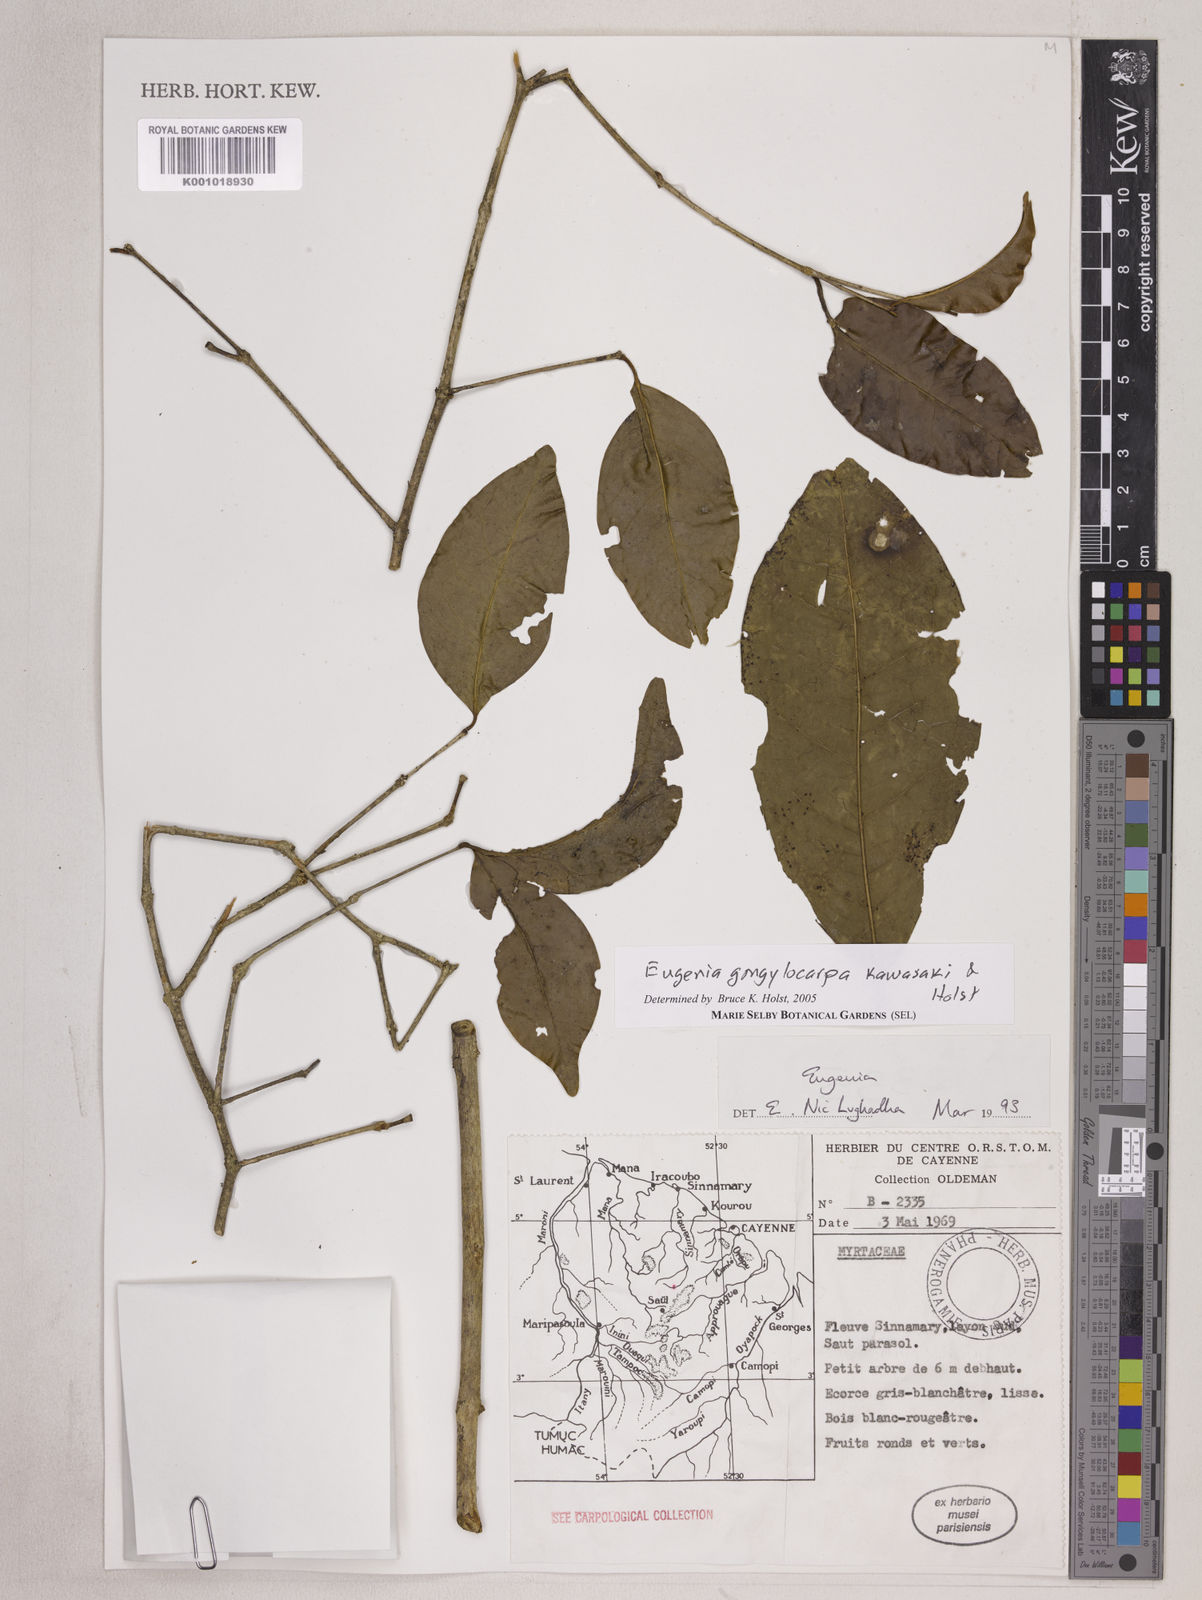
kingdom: Plantae
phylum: Tracheophyta
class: Magnoliopsida
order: Myrtales
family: Myrtaceae
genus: Eugenia
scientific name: Eugenia gongylocarpa
